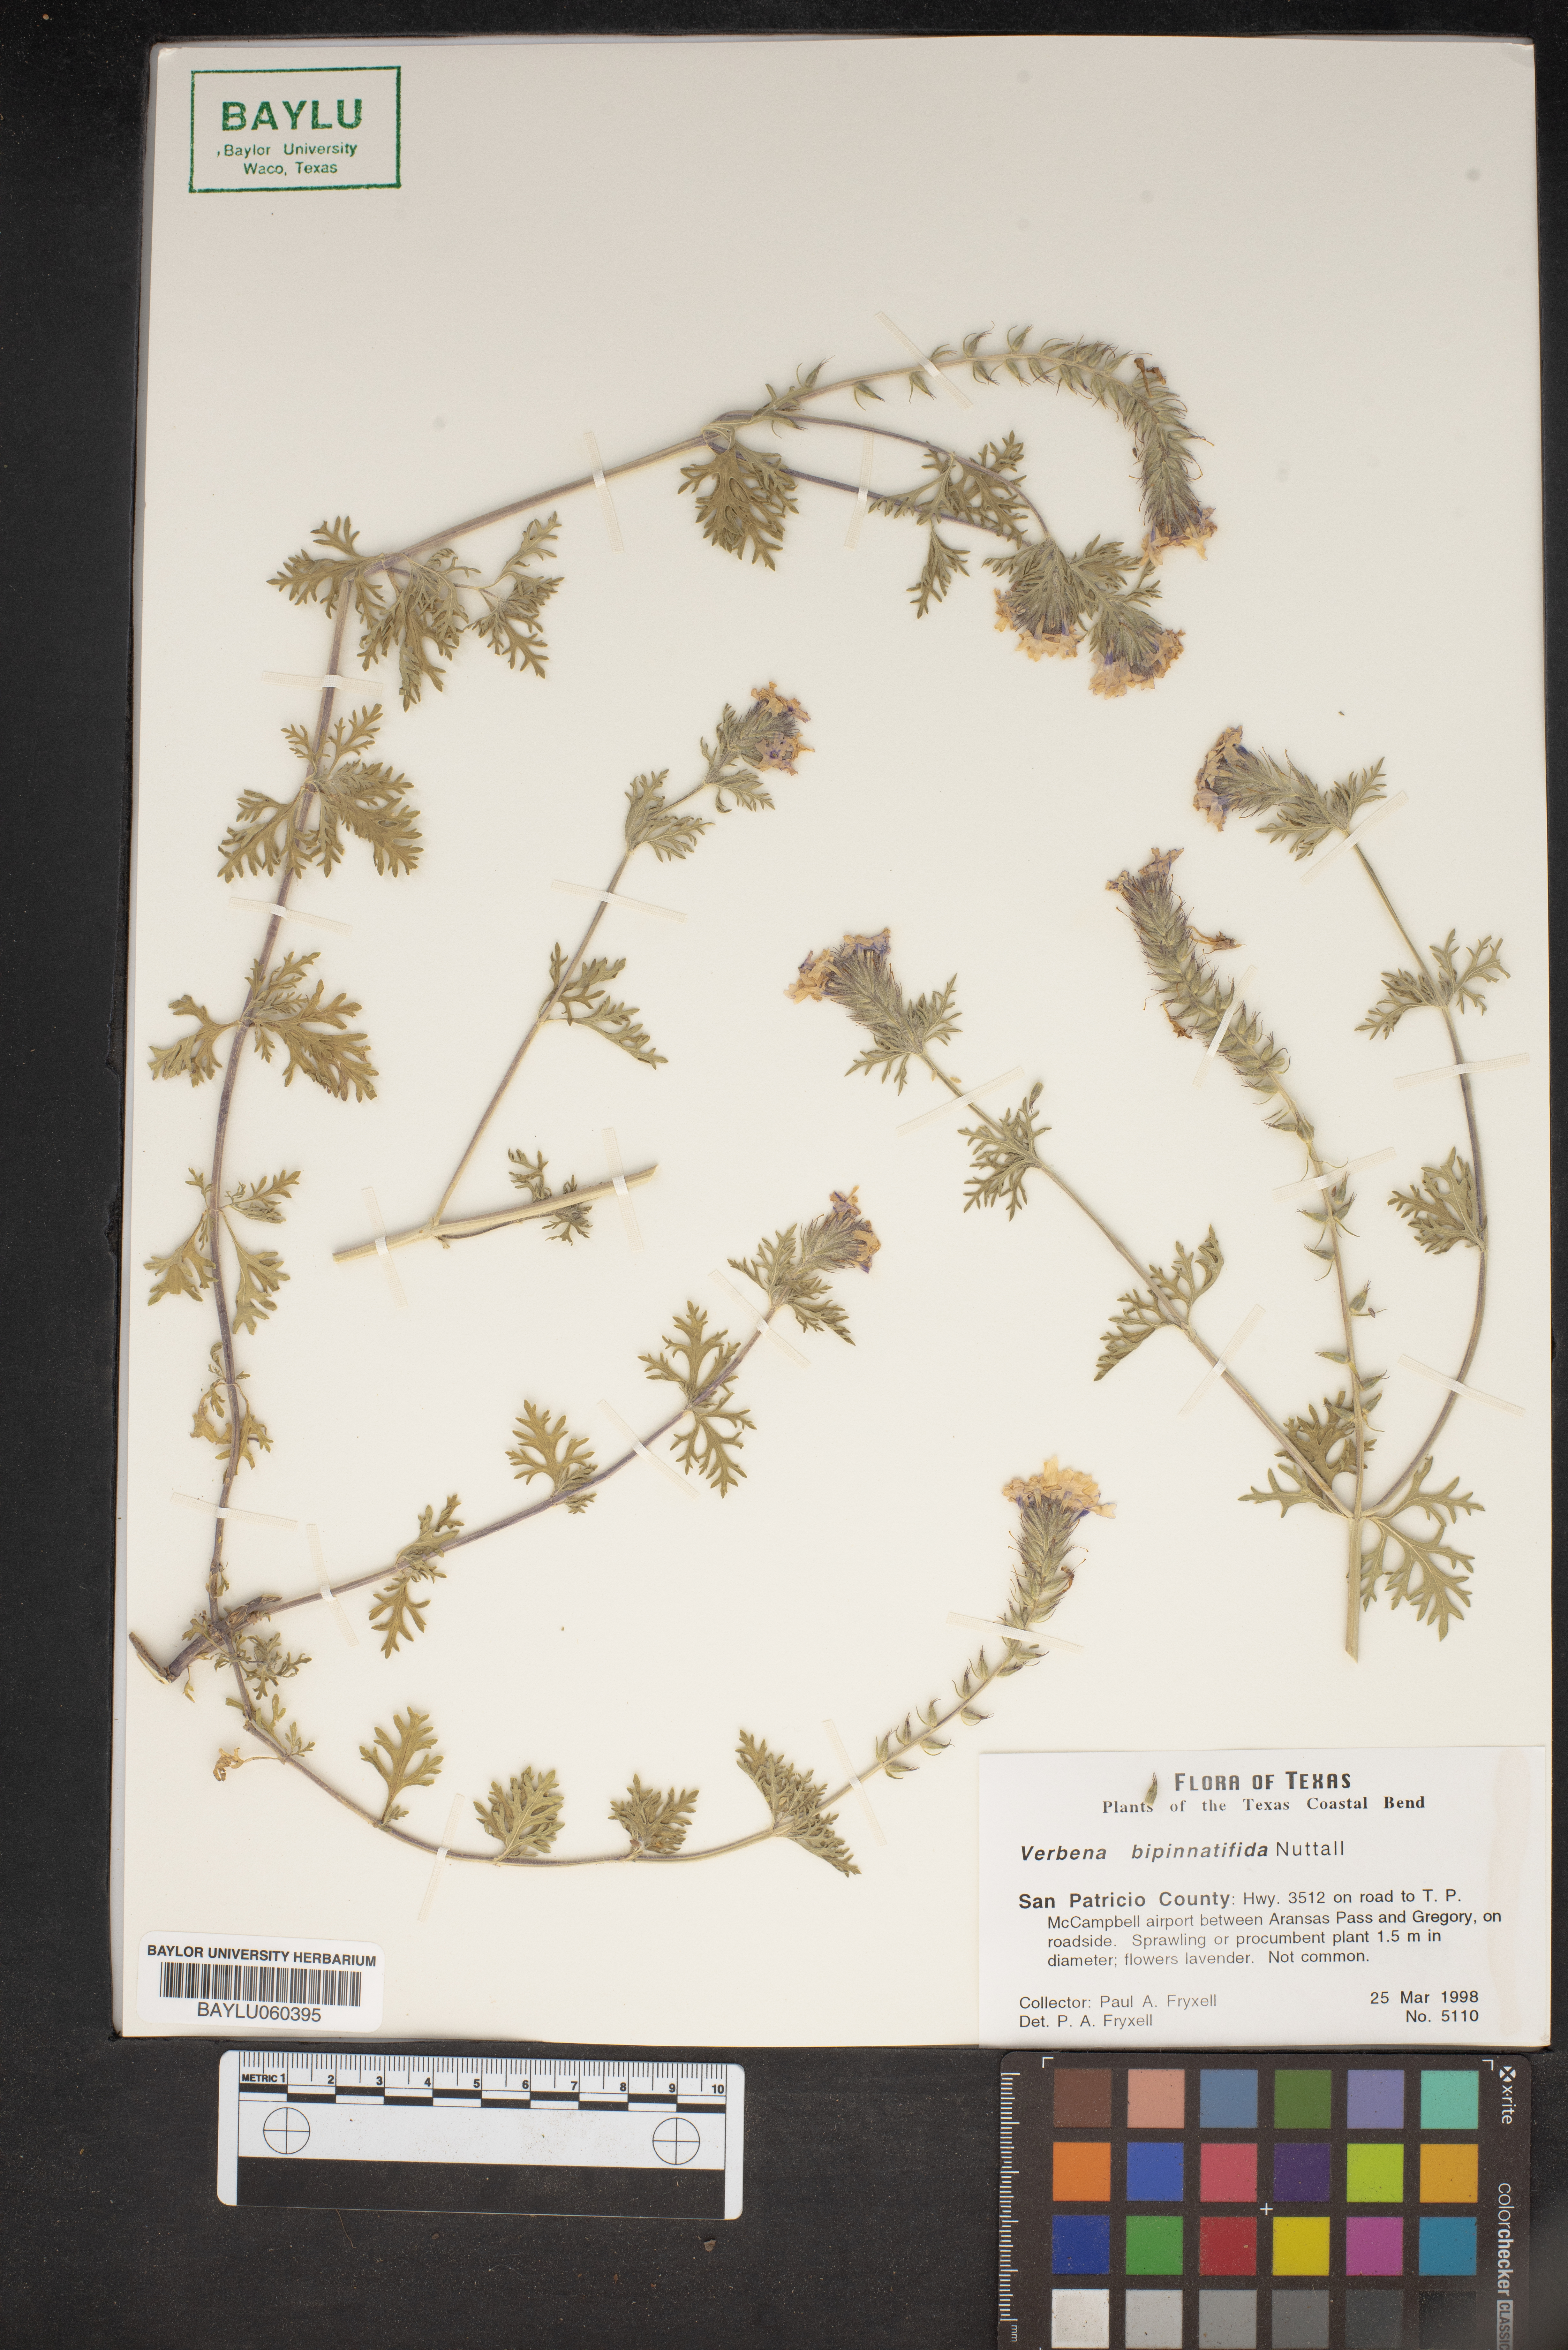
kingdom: Plantae
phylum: Tracheophyta
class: Magnoliopsida
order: Lamiales
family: Verbenaceae
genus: Verbena
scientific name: Verbena bipinnatifida
